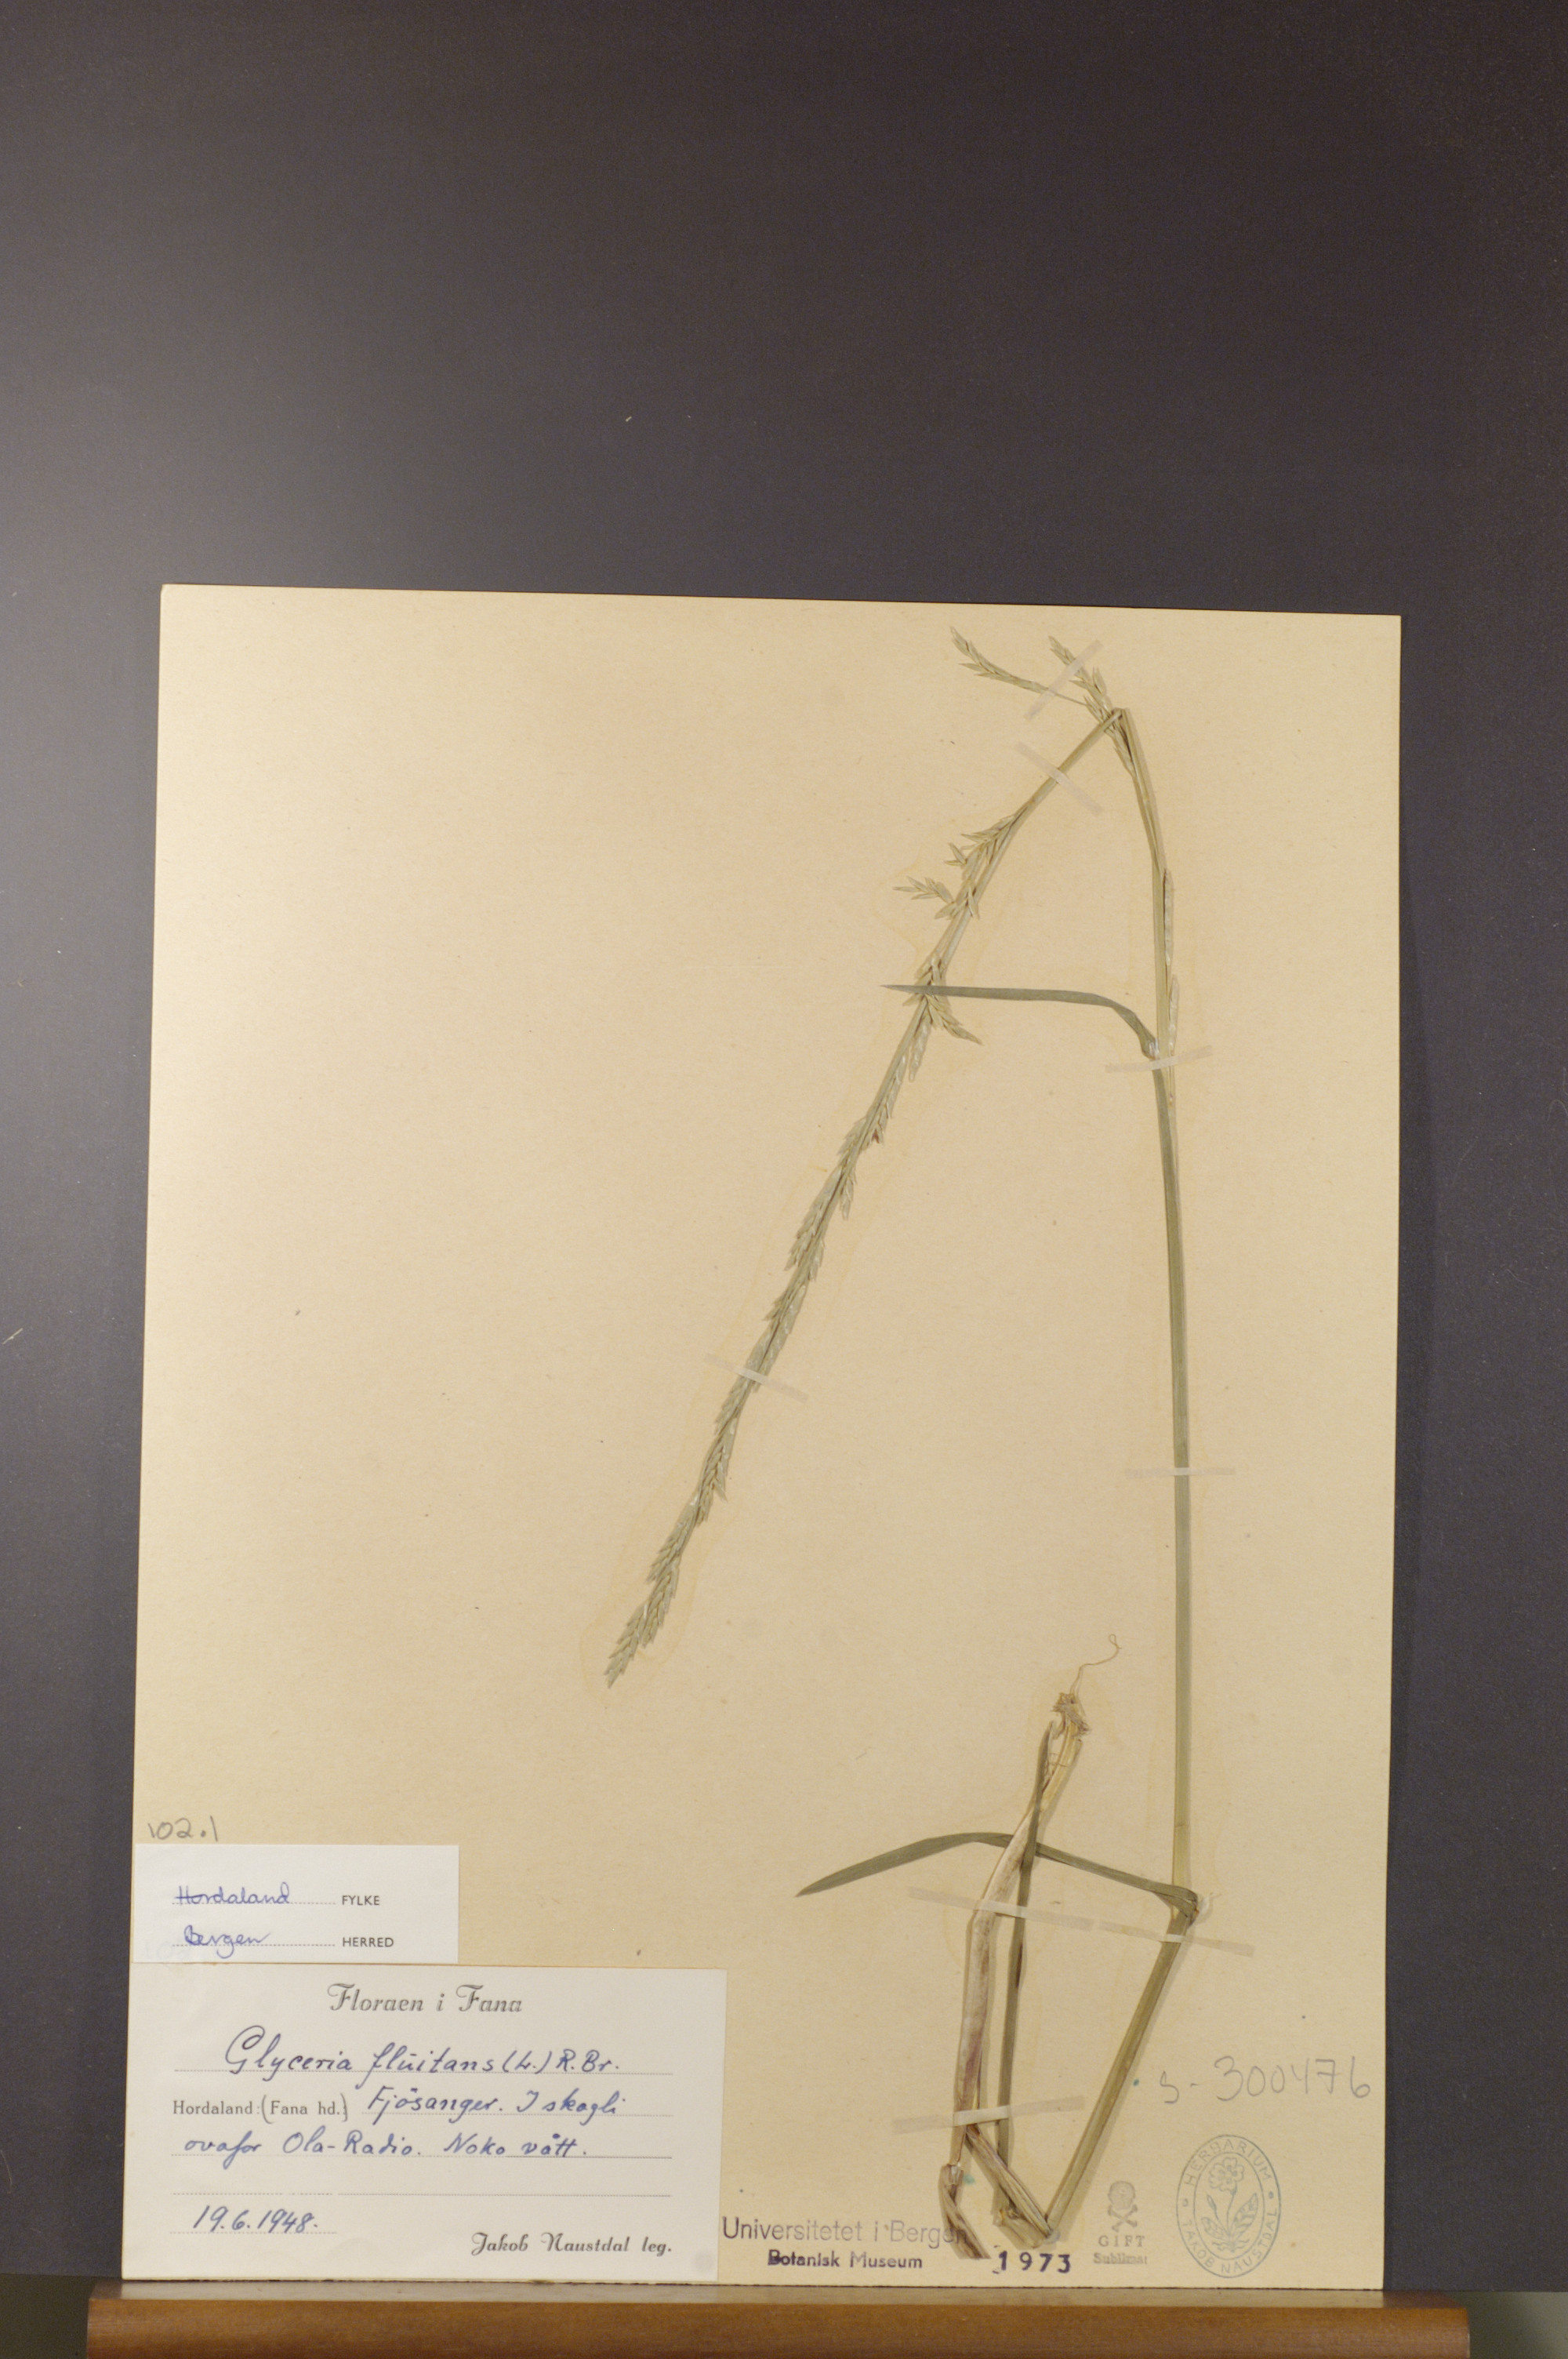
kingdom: Plantae
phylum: Tracheophyta
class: Liliopsida
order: Poales
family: Poaceae
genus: Glyceria
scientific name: Glyceria fluitans
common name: Floating sweet-grass
